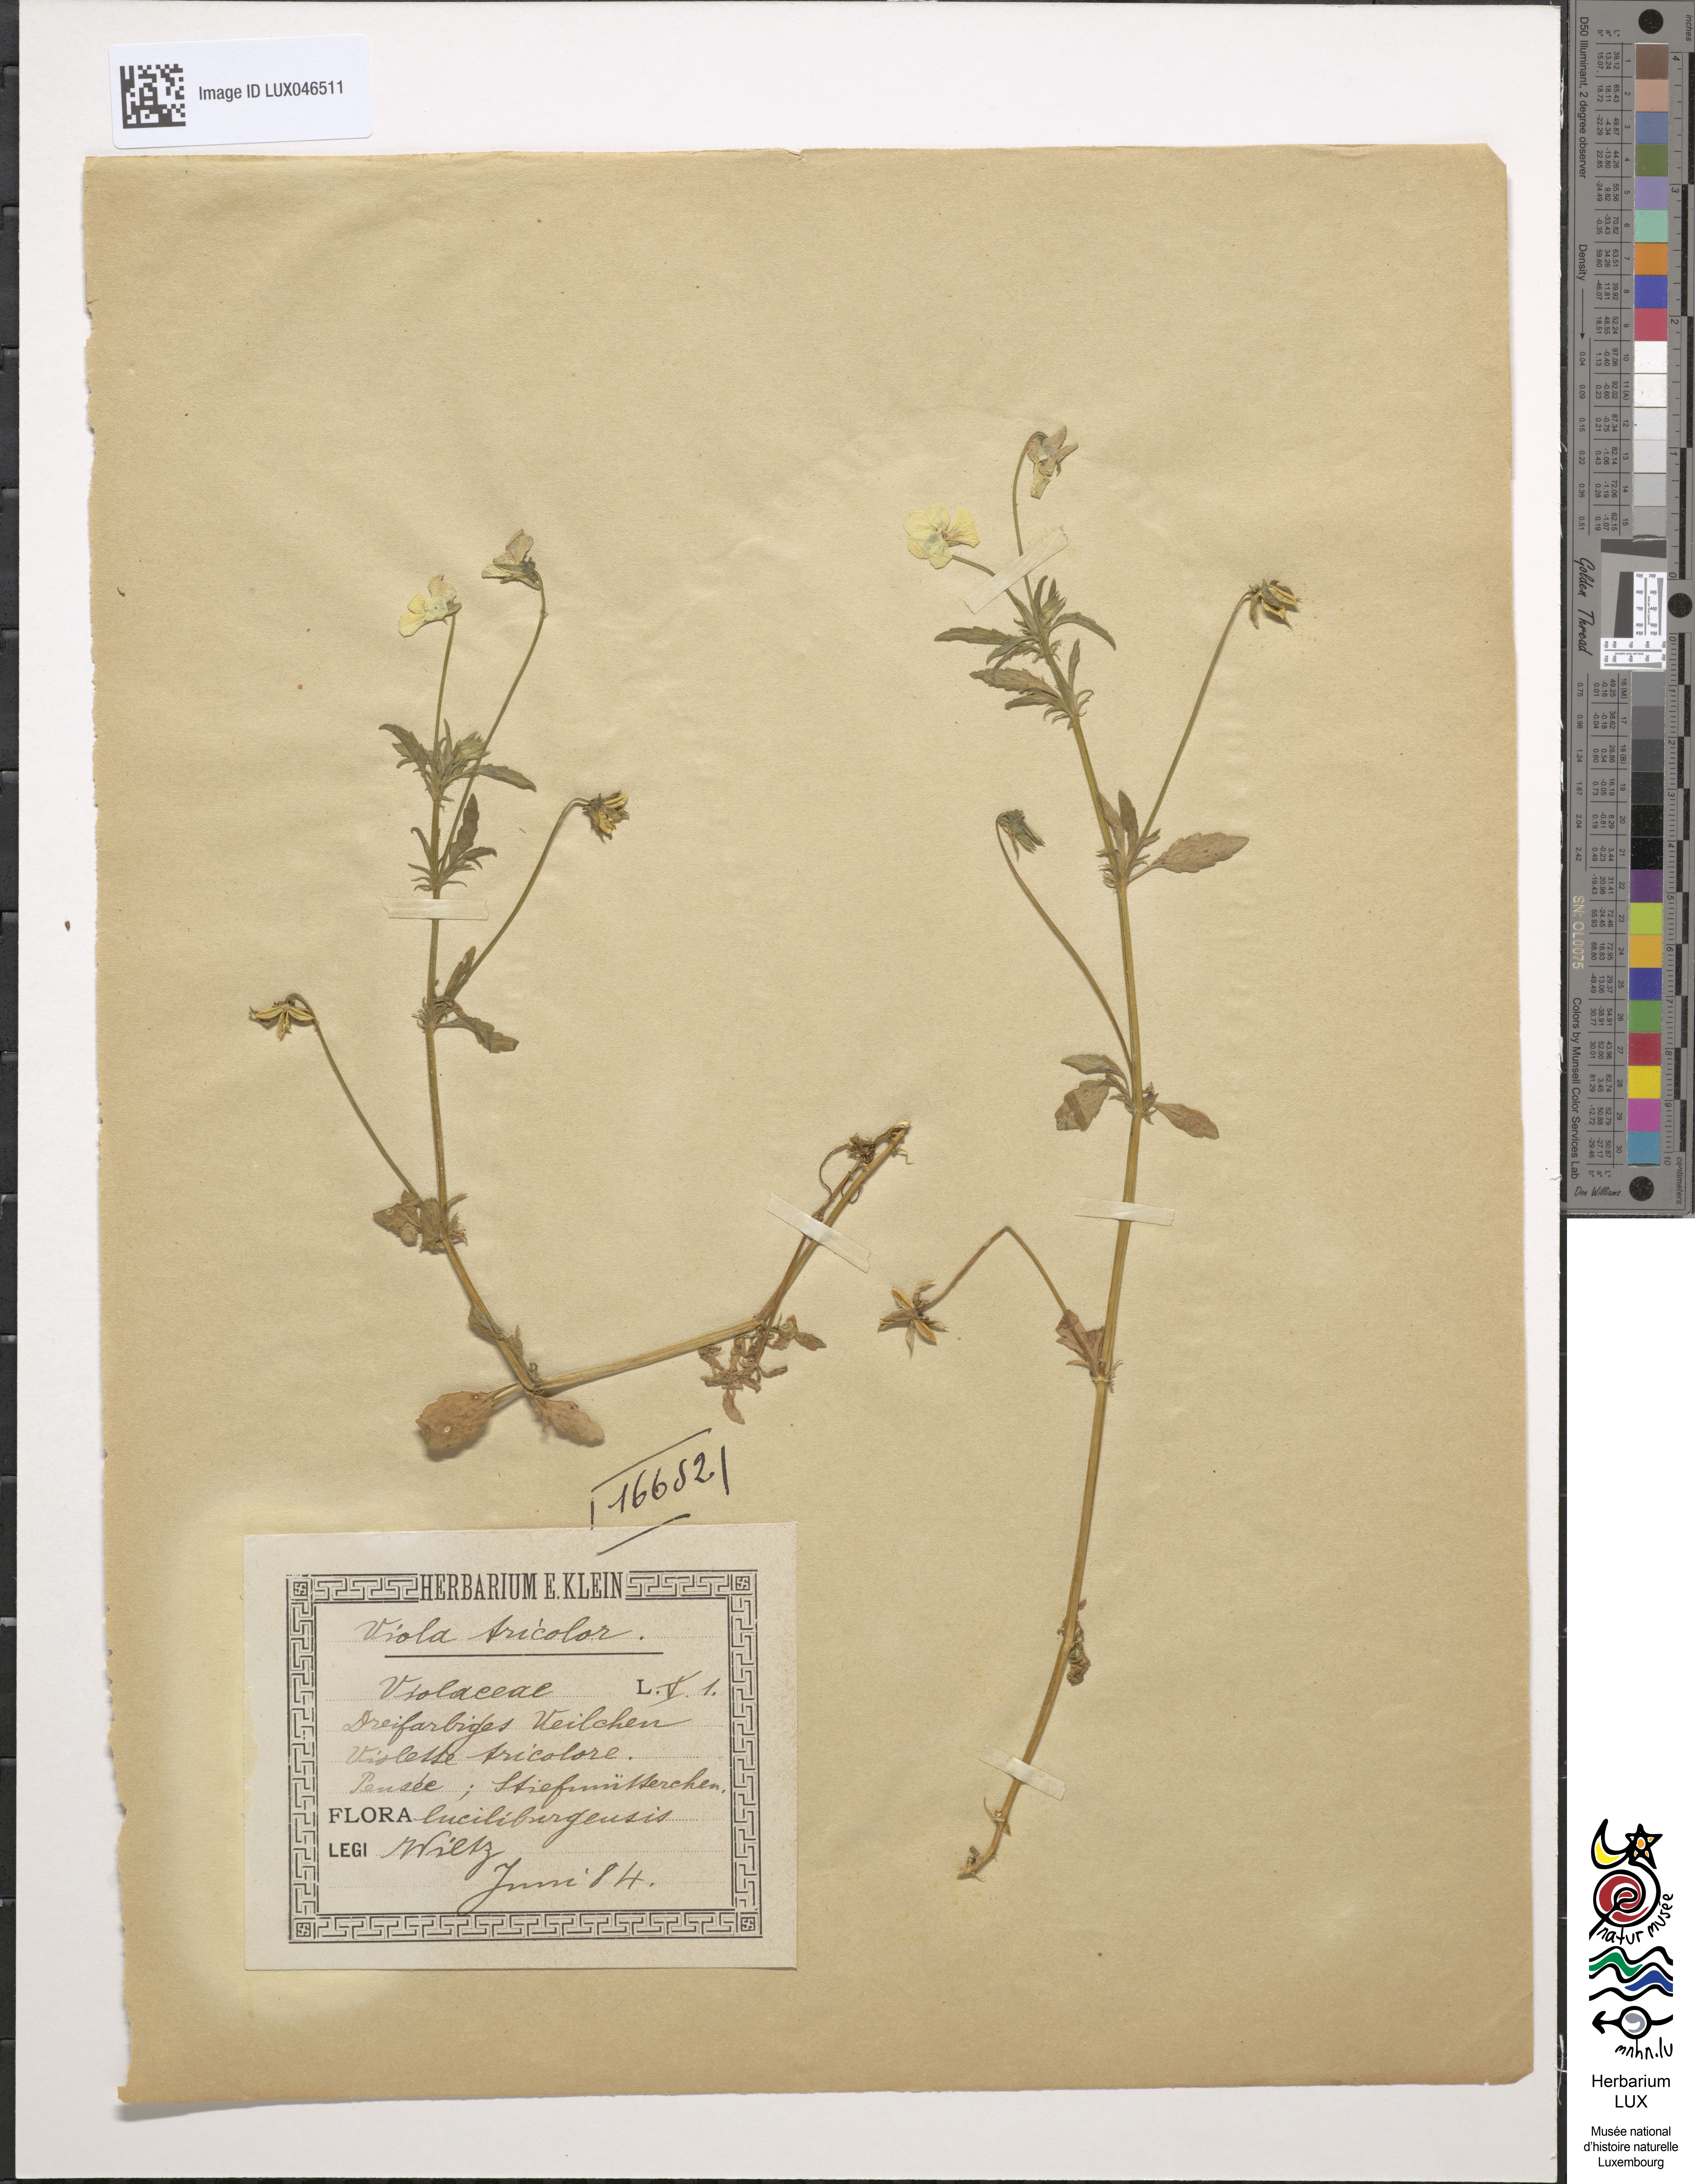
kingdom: Plantae
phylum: Tracheophyta
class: Magnoliopsida
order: Malpighiales
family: Violaceae
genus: Viola
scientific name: Viola tricolor
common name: Pansy
